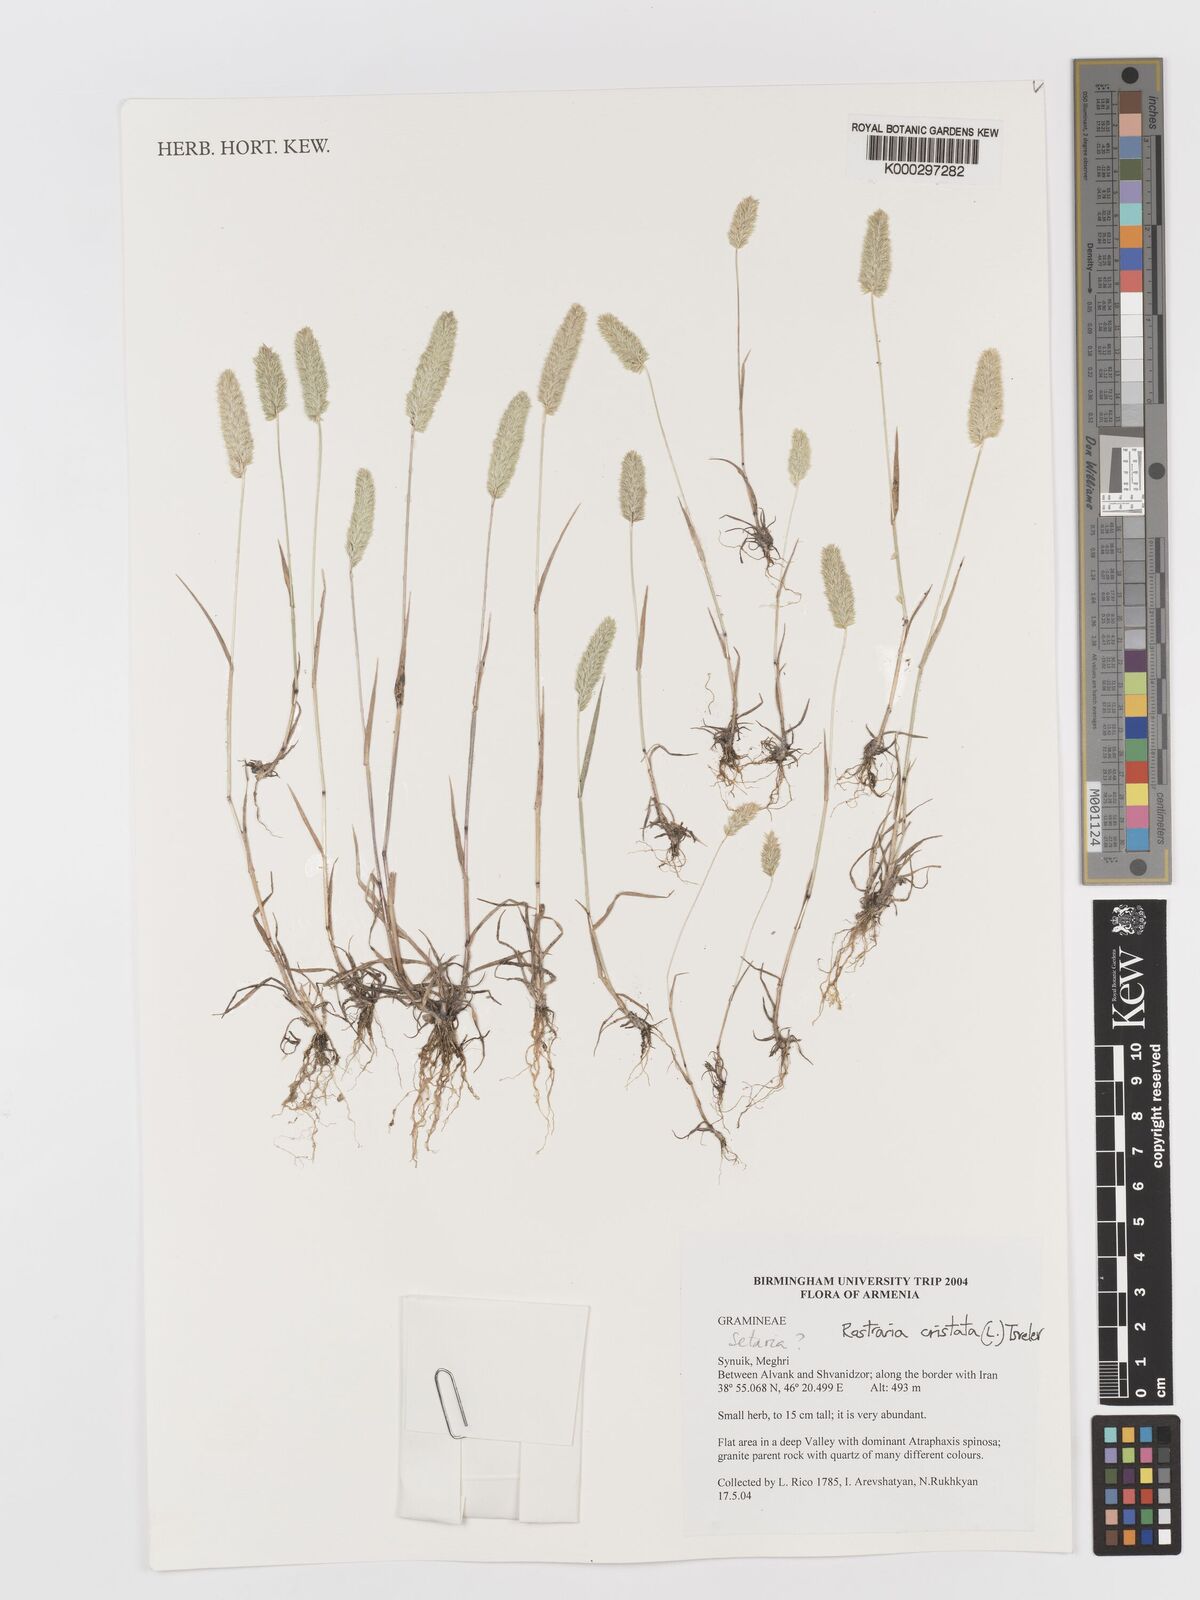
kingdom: Plantae
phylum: Tracheophyta
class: Liliopsida
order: Poales
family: Poaceae
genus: Rostraria
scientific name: Rostraria cristata
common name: Mediterranean hair-grass
